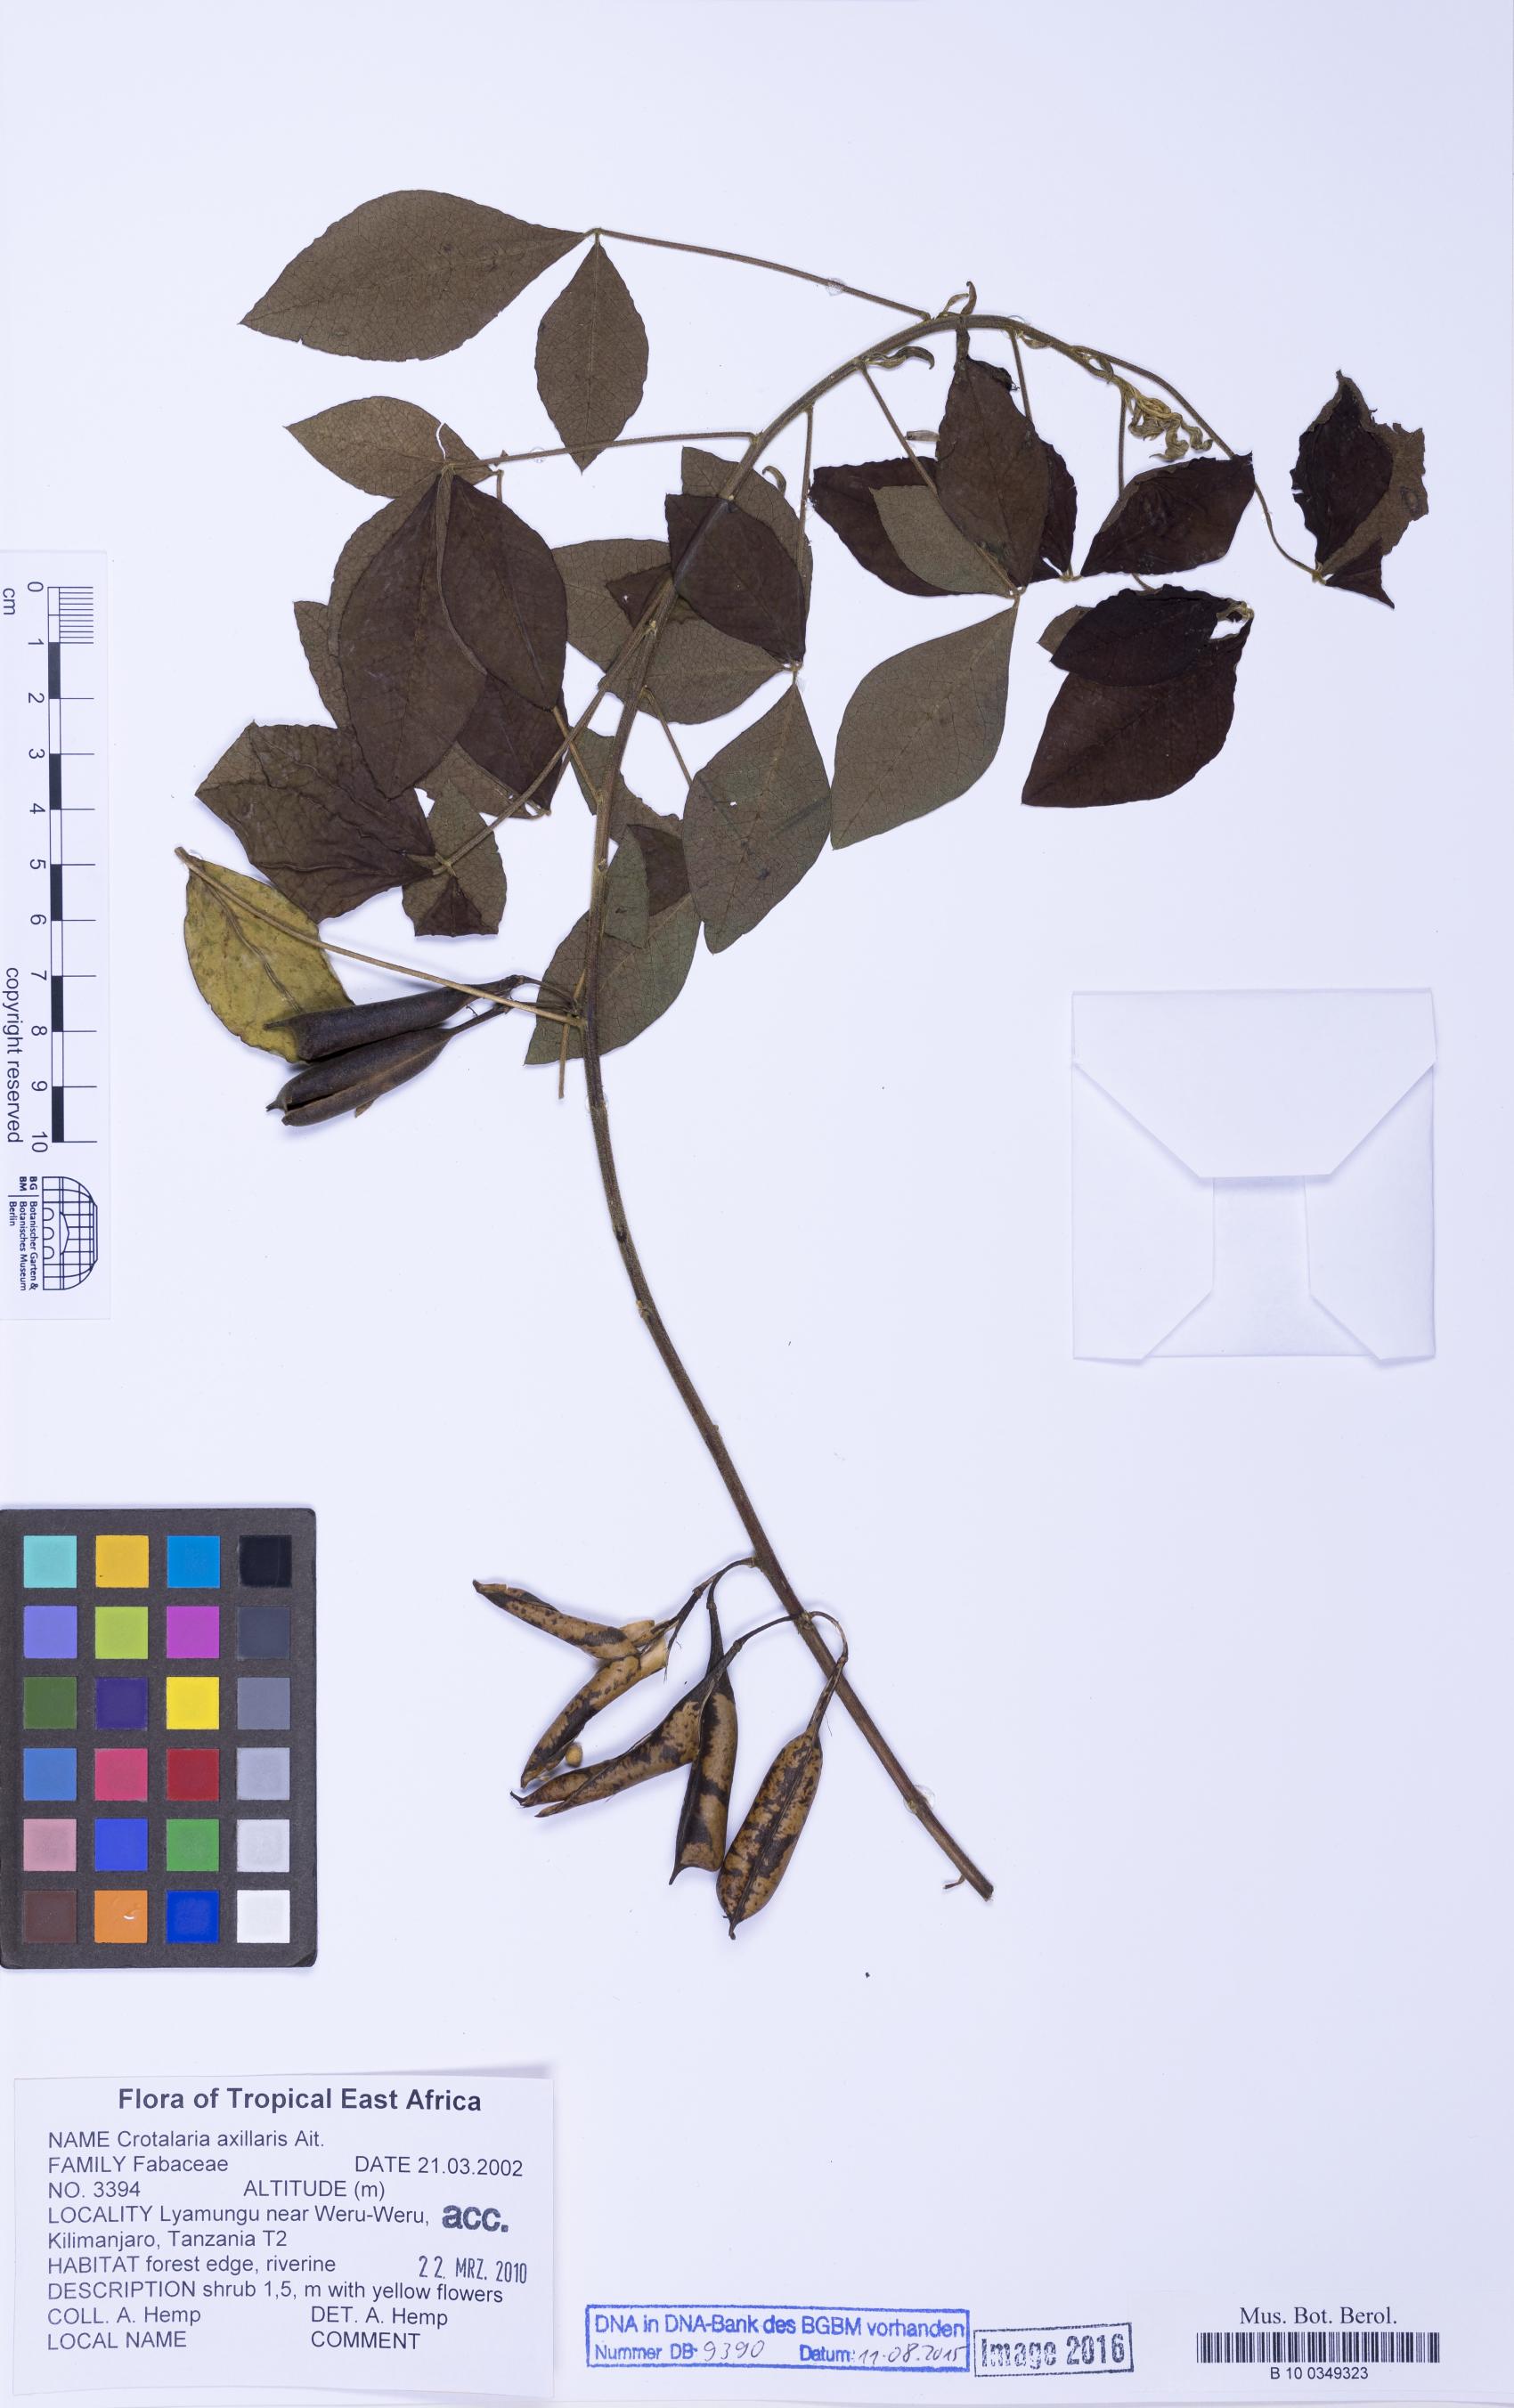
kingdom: Plantae
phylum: Tracheophyta
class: Magnoliopsida
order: Fabales
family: Fabaceae
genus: Crotalaria
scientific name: Crotalaria axillaris
